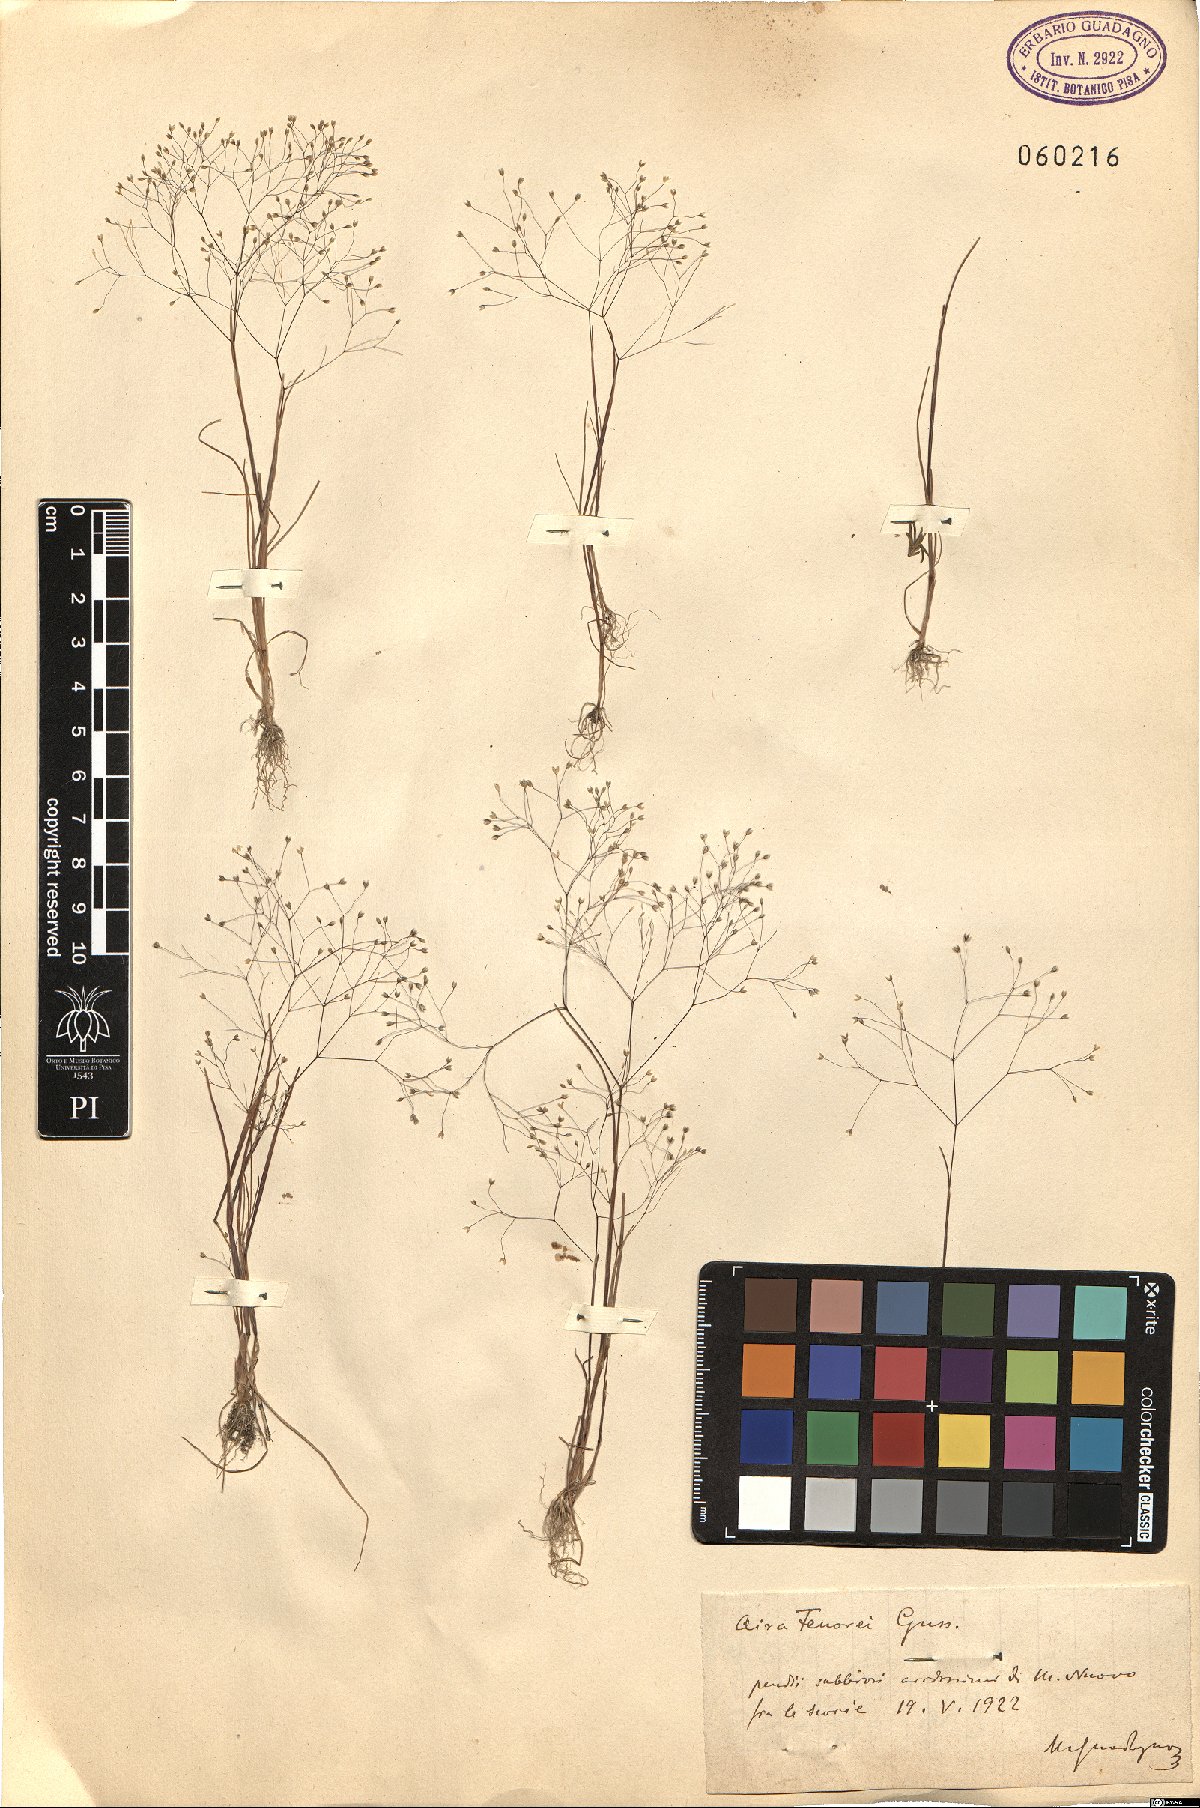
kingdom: Plantae
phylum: Tracheophyta
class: Liliopsida
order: Poales
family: Poaceae
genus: Aira
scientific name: Aira tenorei
